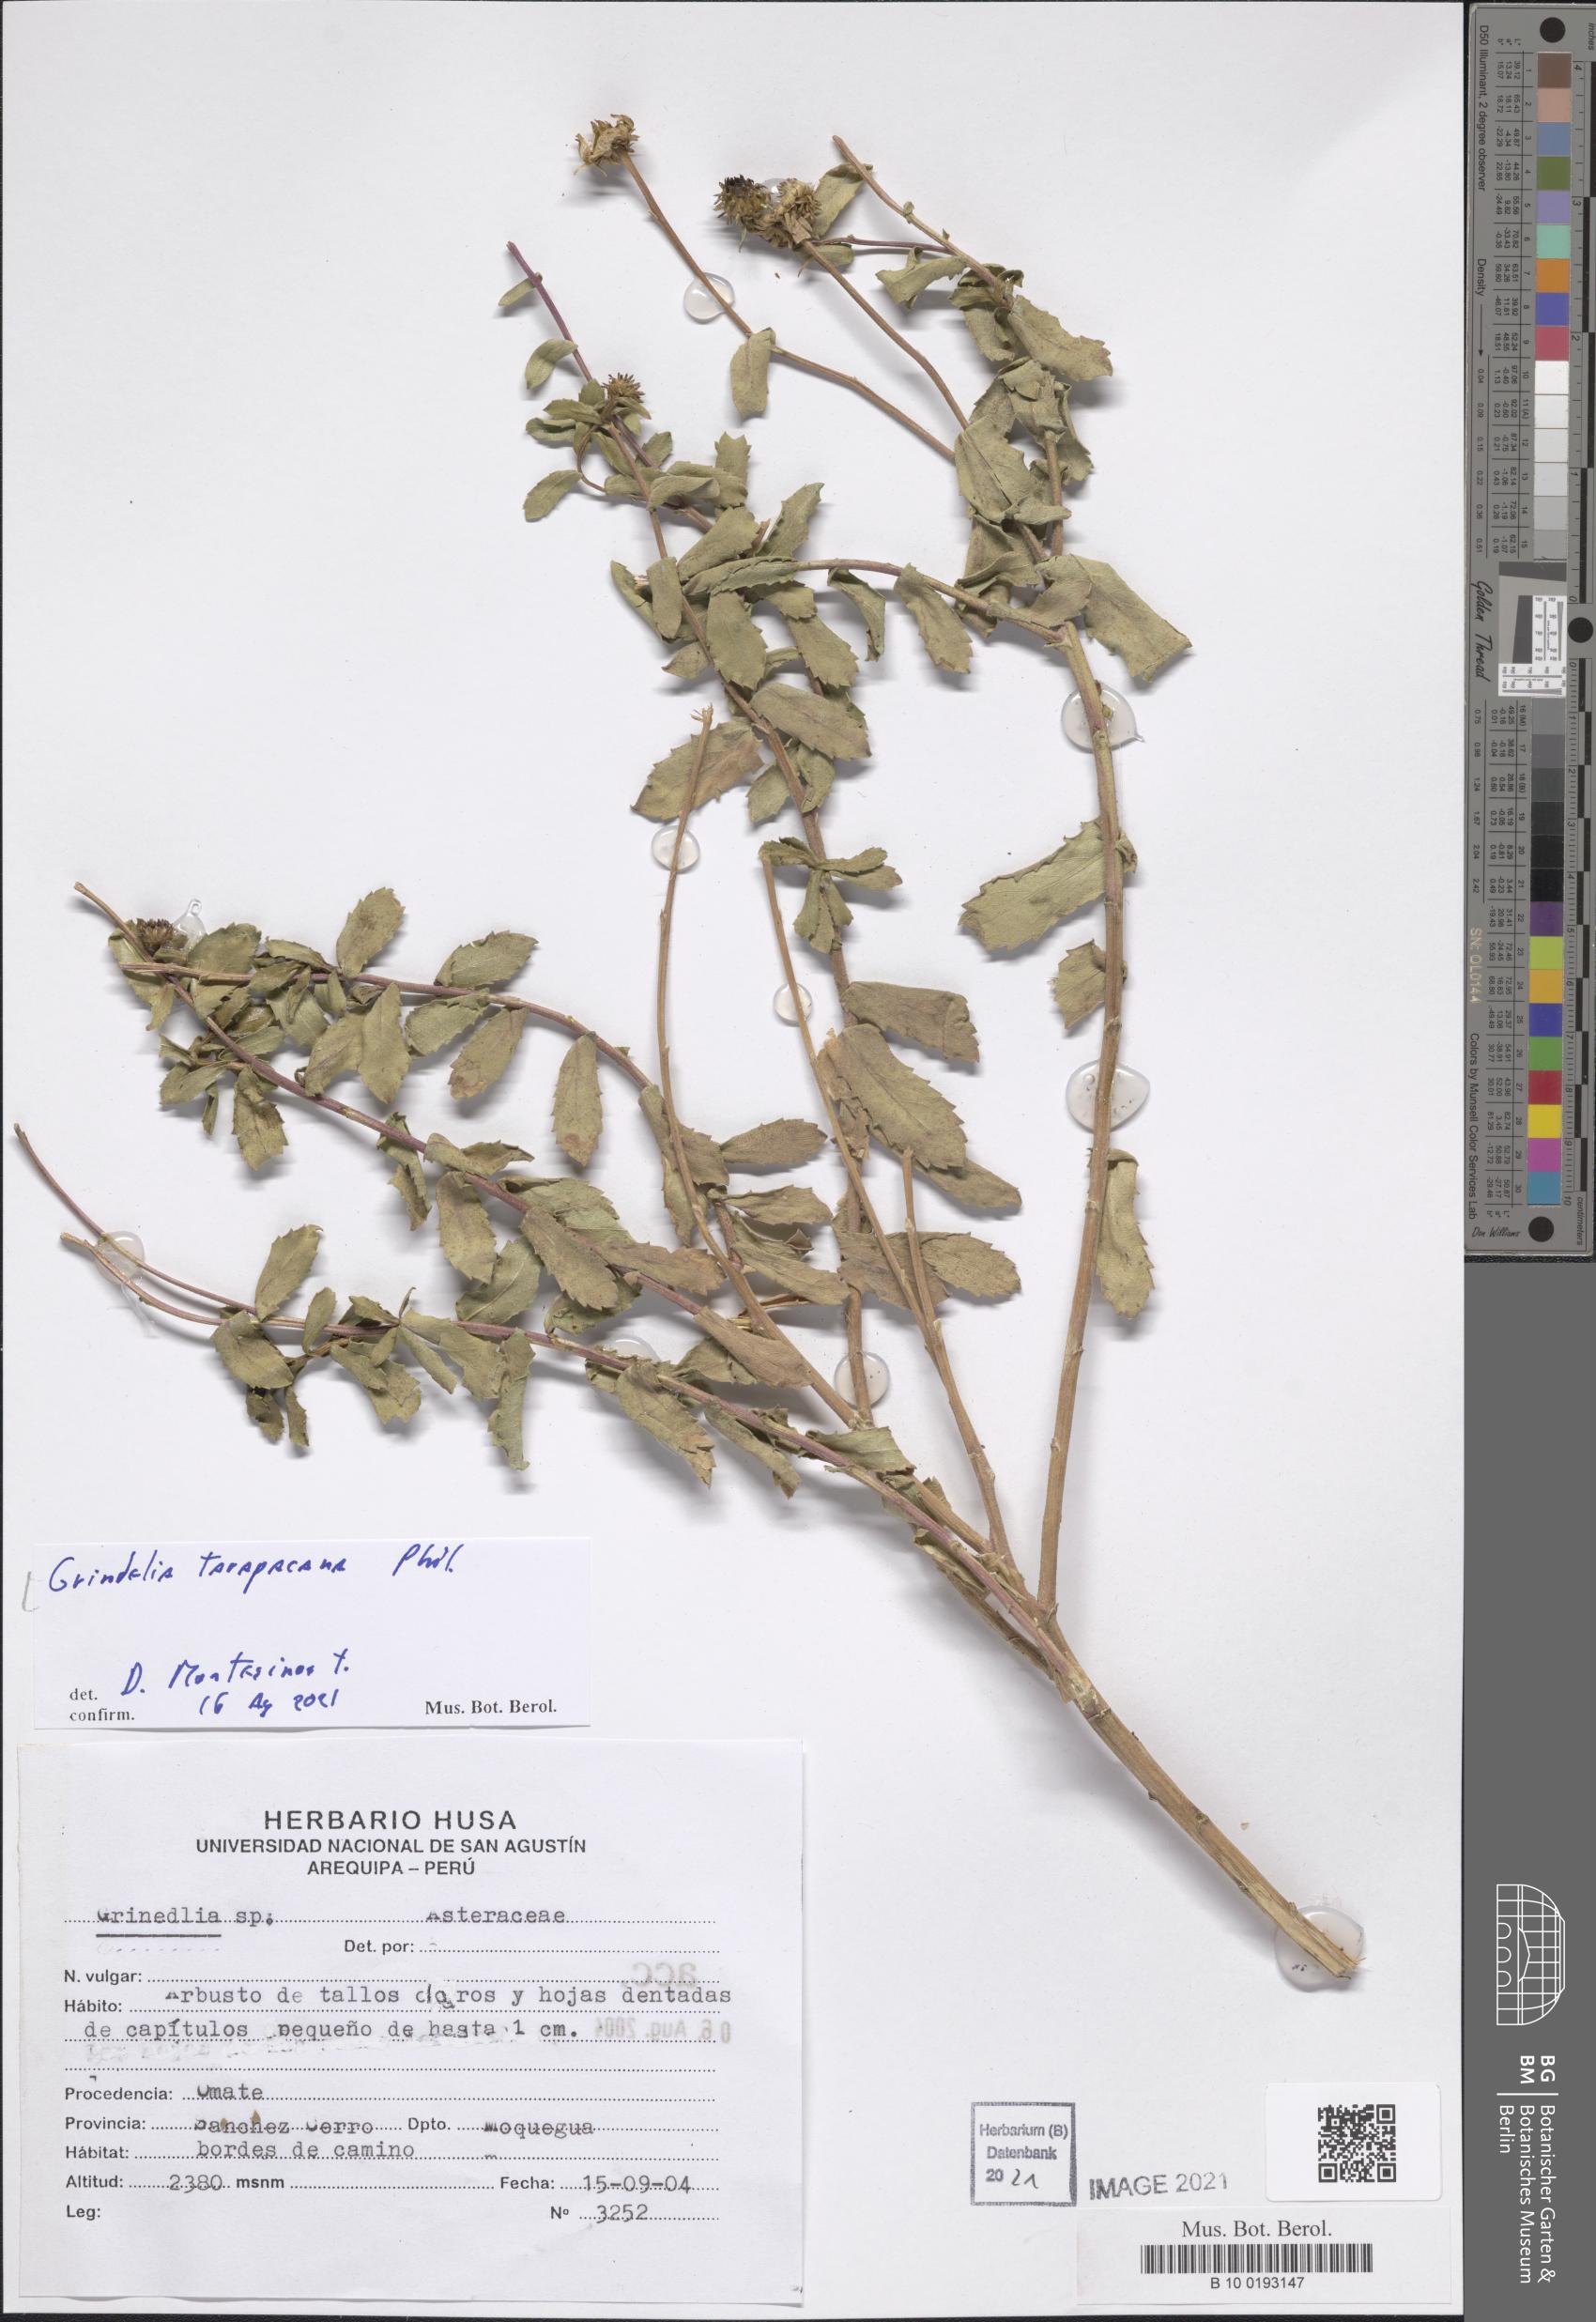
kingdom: Plantae
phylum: Tracheophyta
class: Magnoliopsida
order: Asterales
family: Asteraceae
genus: Grindelia
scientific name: Grindelia tarapacana
